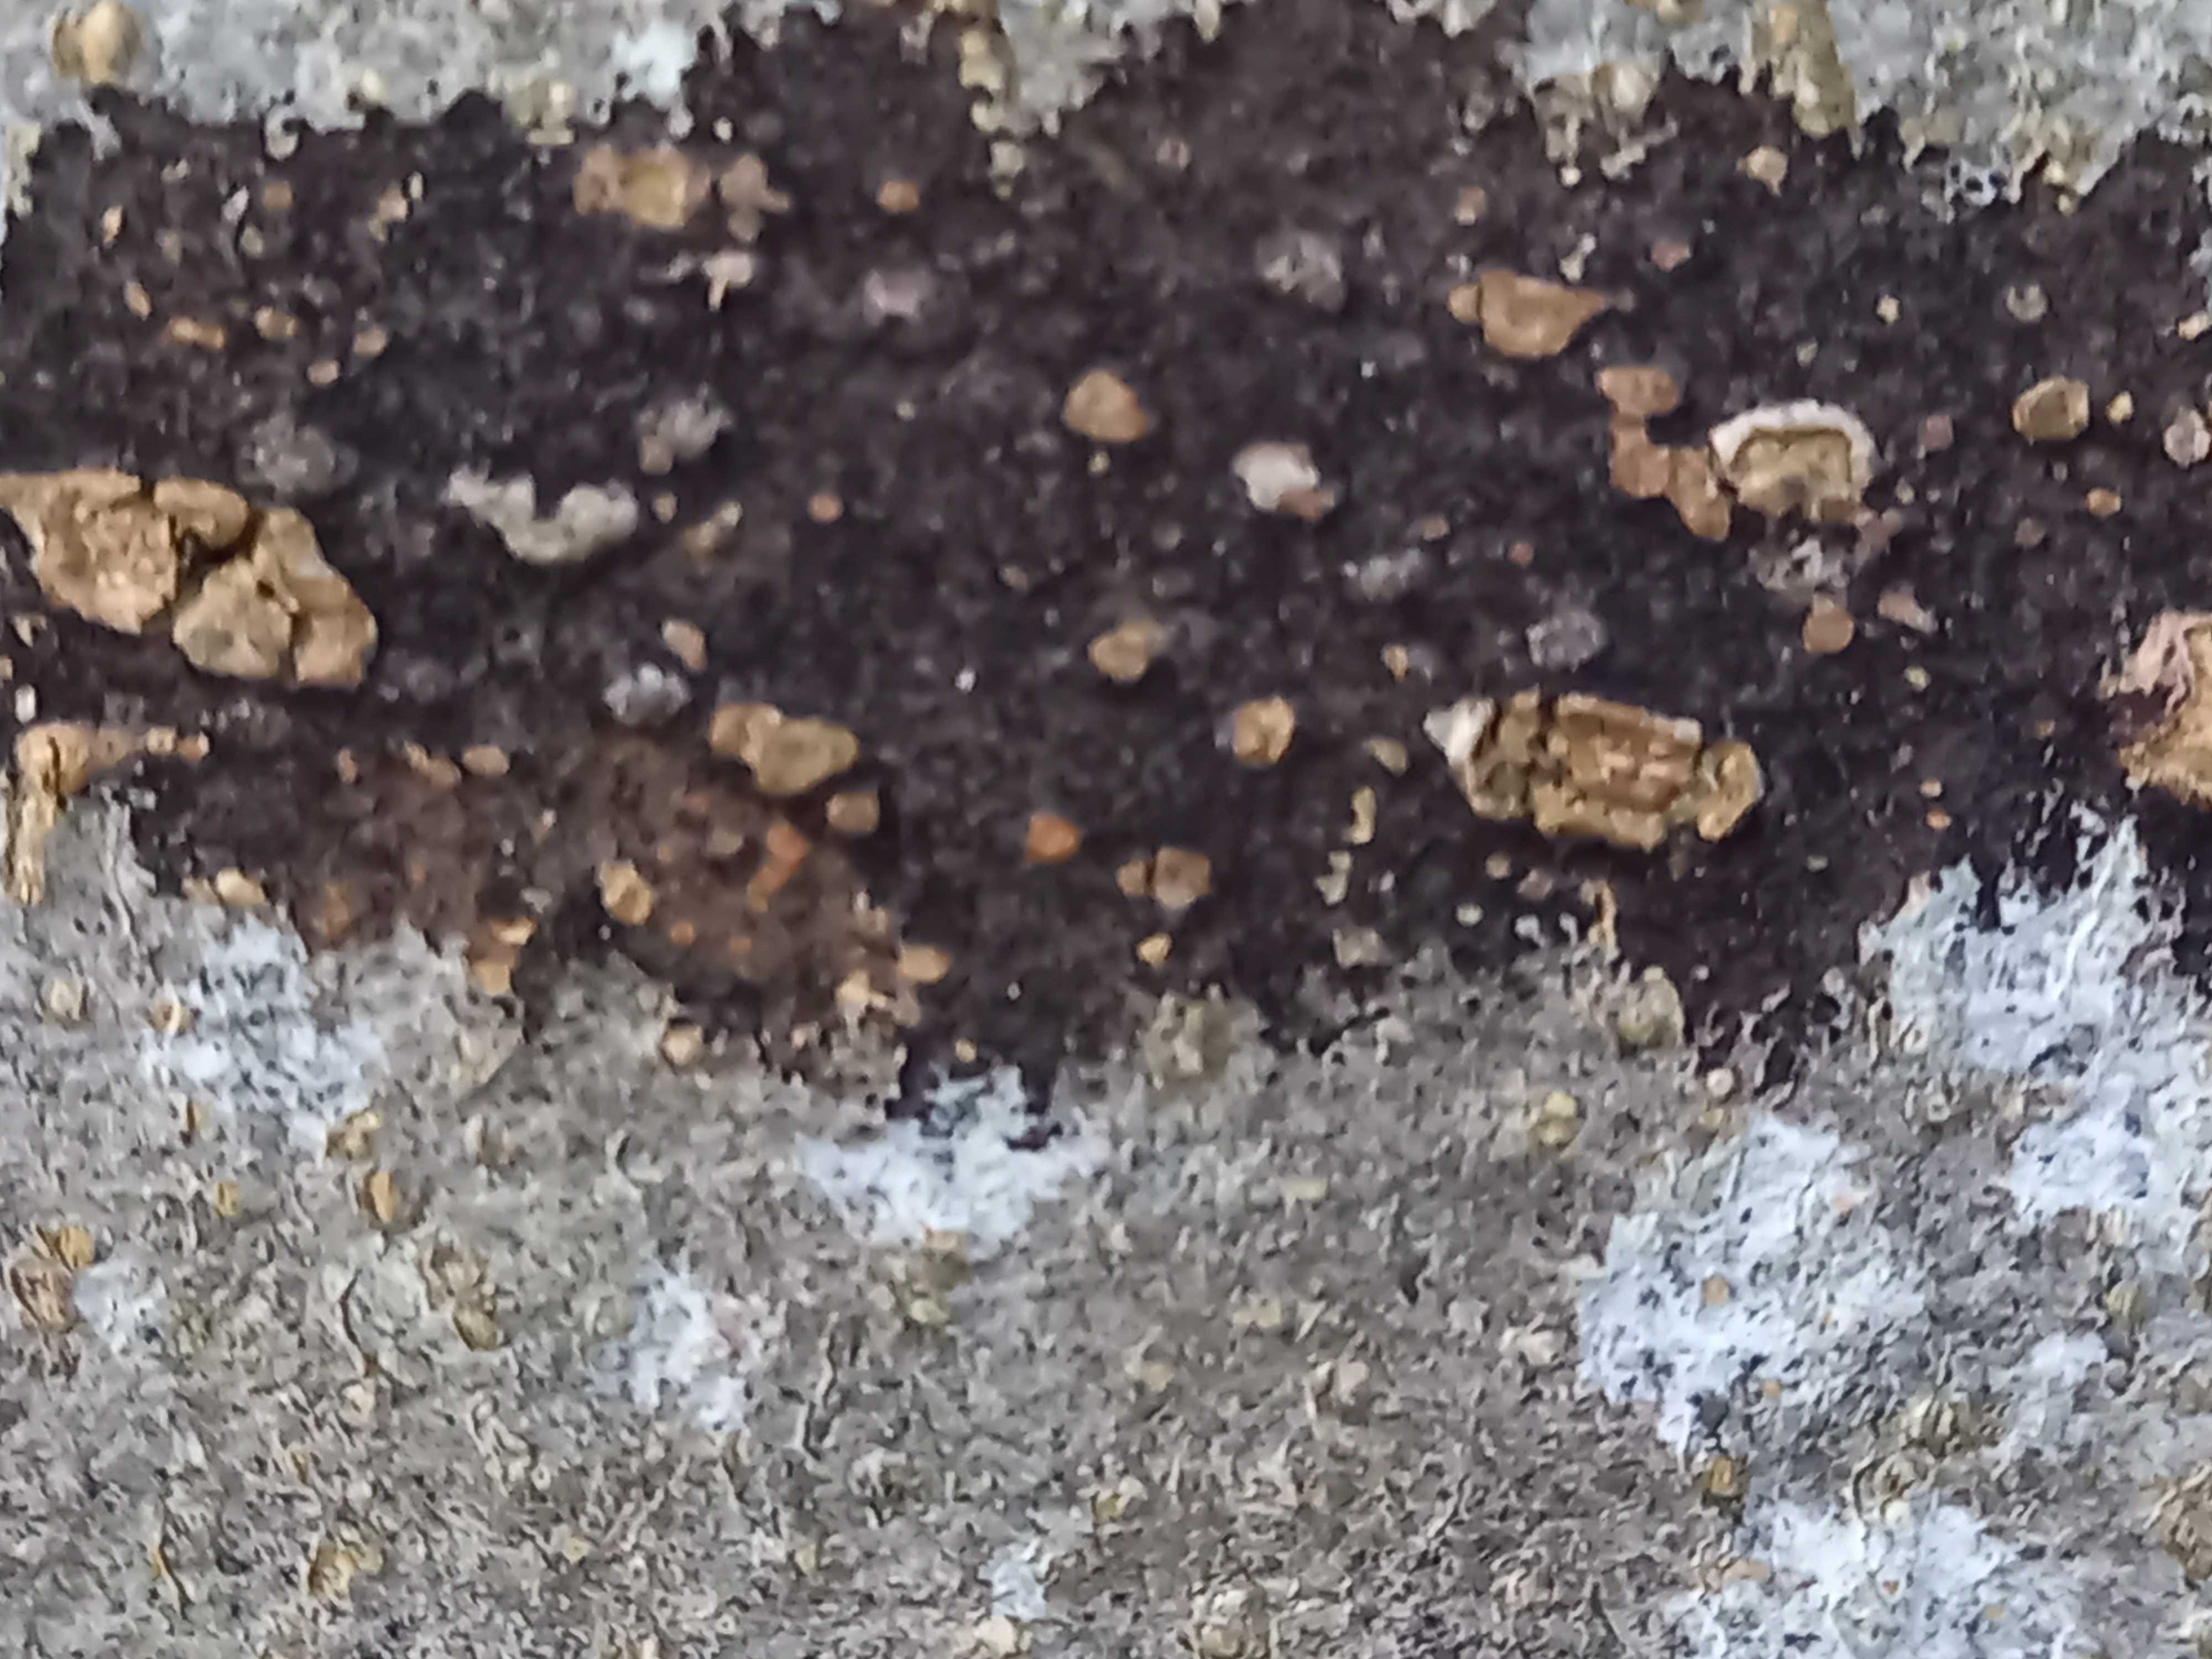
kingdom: Fungi
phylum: Ascomycota
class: Leotiomycetes
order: Rhytismatales
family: Ascodichaenaceae
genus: Ascodichaena
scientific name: Ascodichaena rugosa
